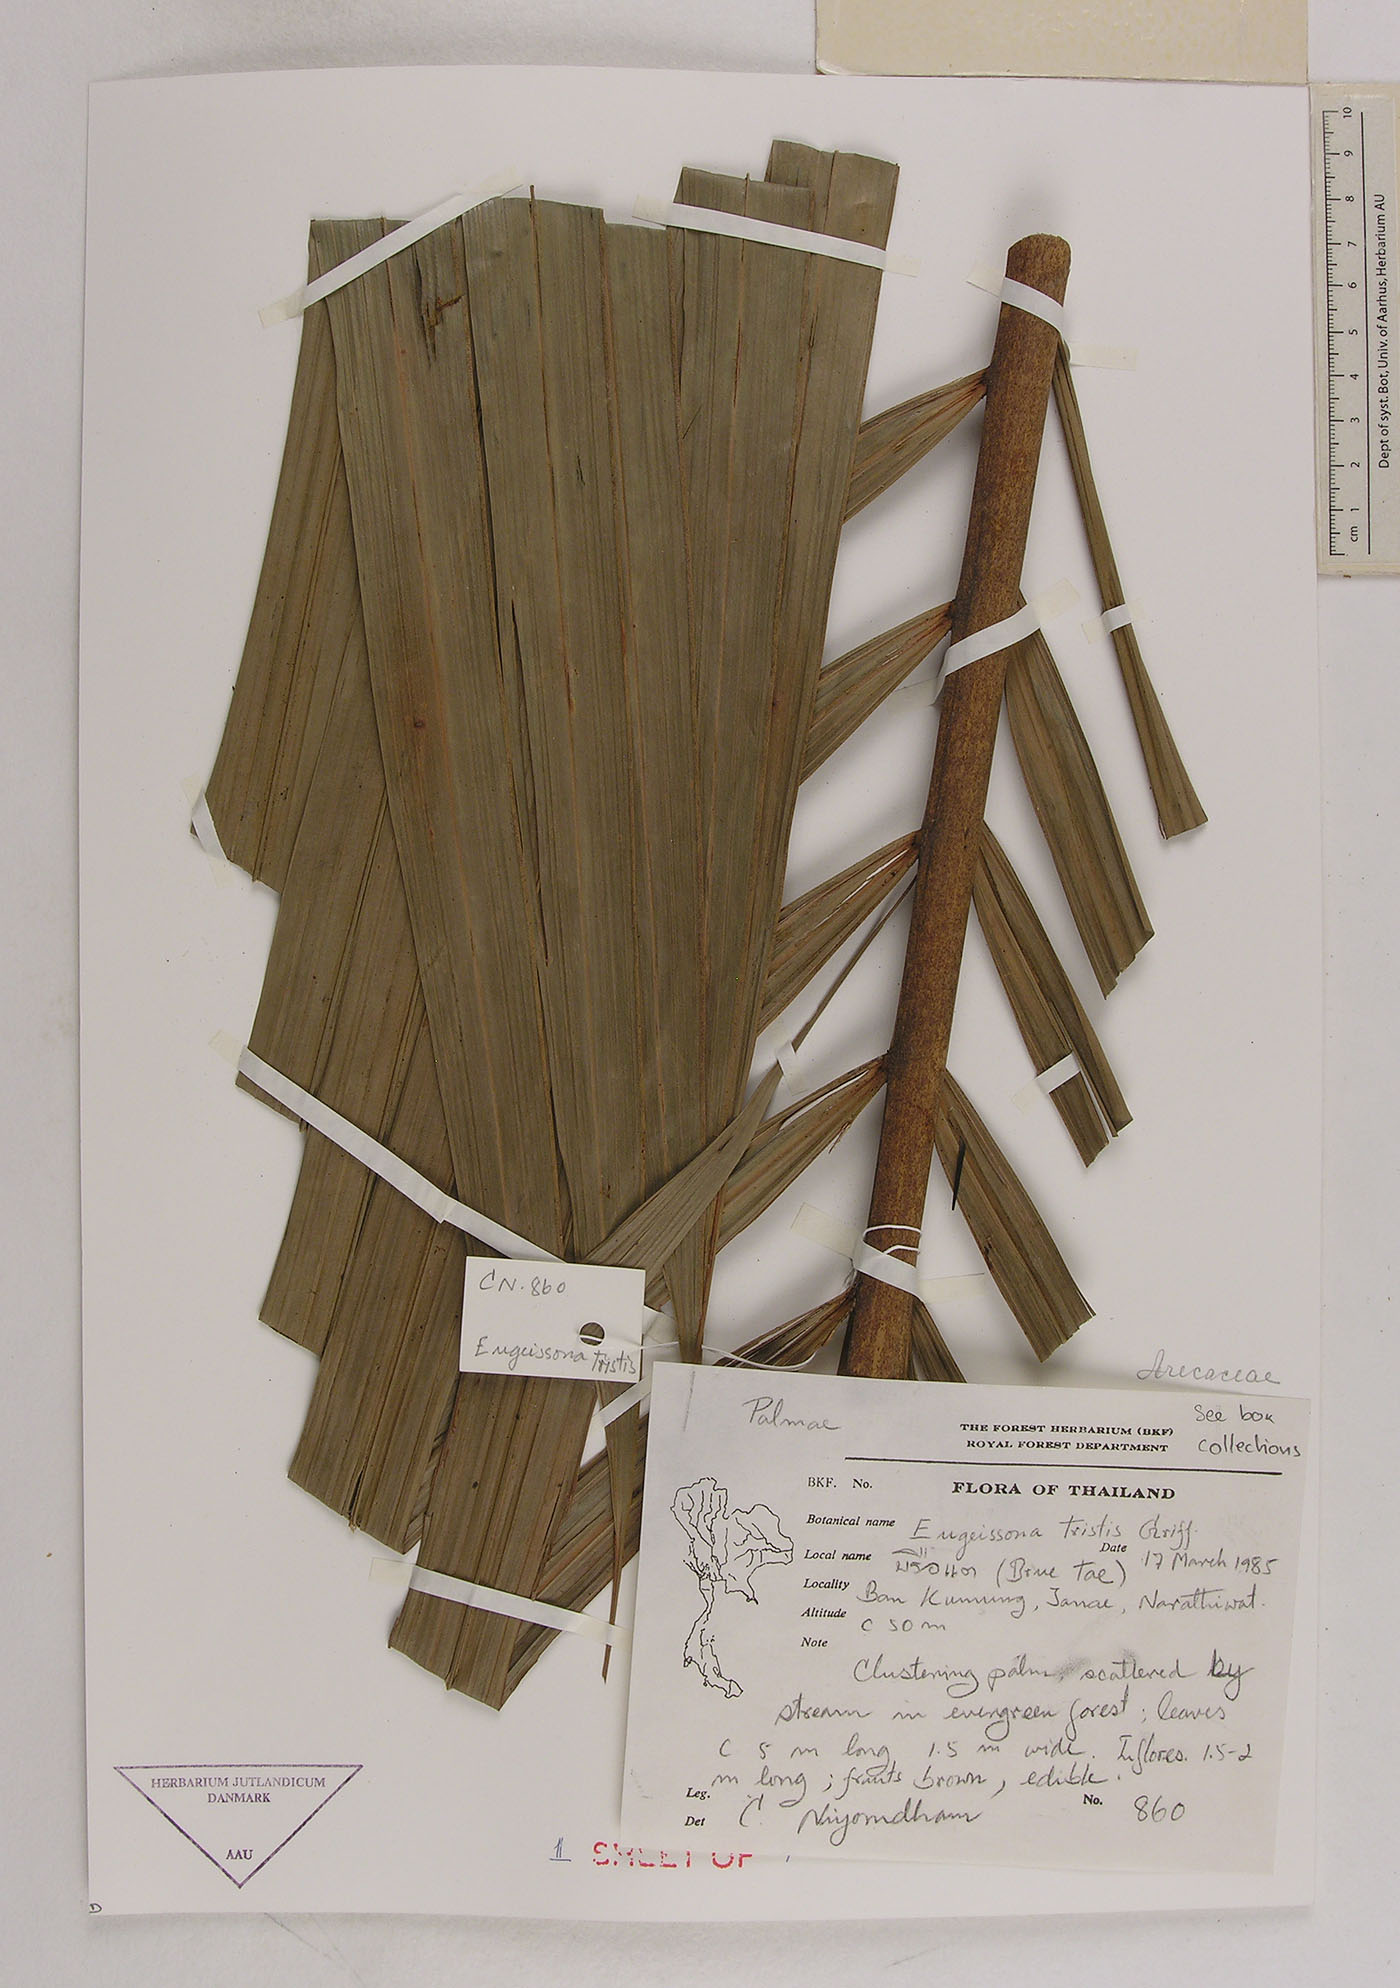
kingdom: Plantae
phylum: Tracheophyta
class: Liliopsida
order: Arecales
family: Arecaceae
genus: Eugeissona
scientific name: Eugeissona tristis
